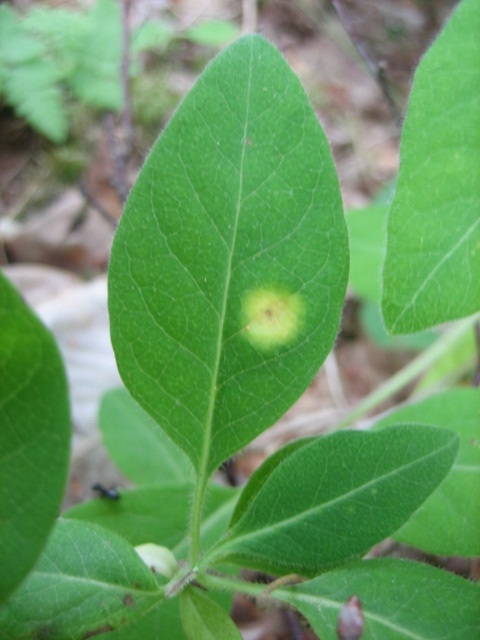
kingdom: Fungi
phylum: Basidiomycota
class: Pucciniomycetes
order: Pucciniales
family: Pucciniaceae
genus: Puccinia
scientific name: Puccinia festucae
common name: gedeblad-tvecellerust
